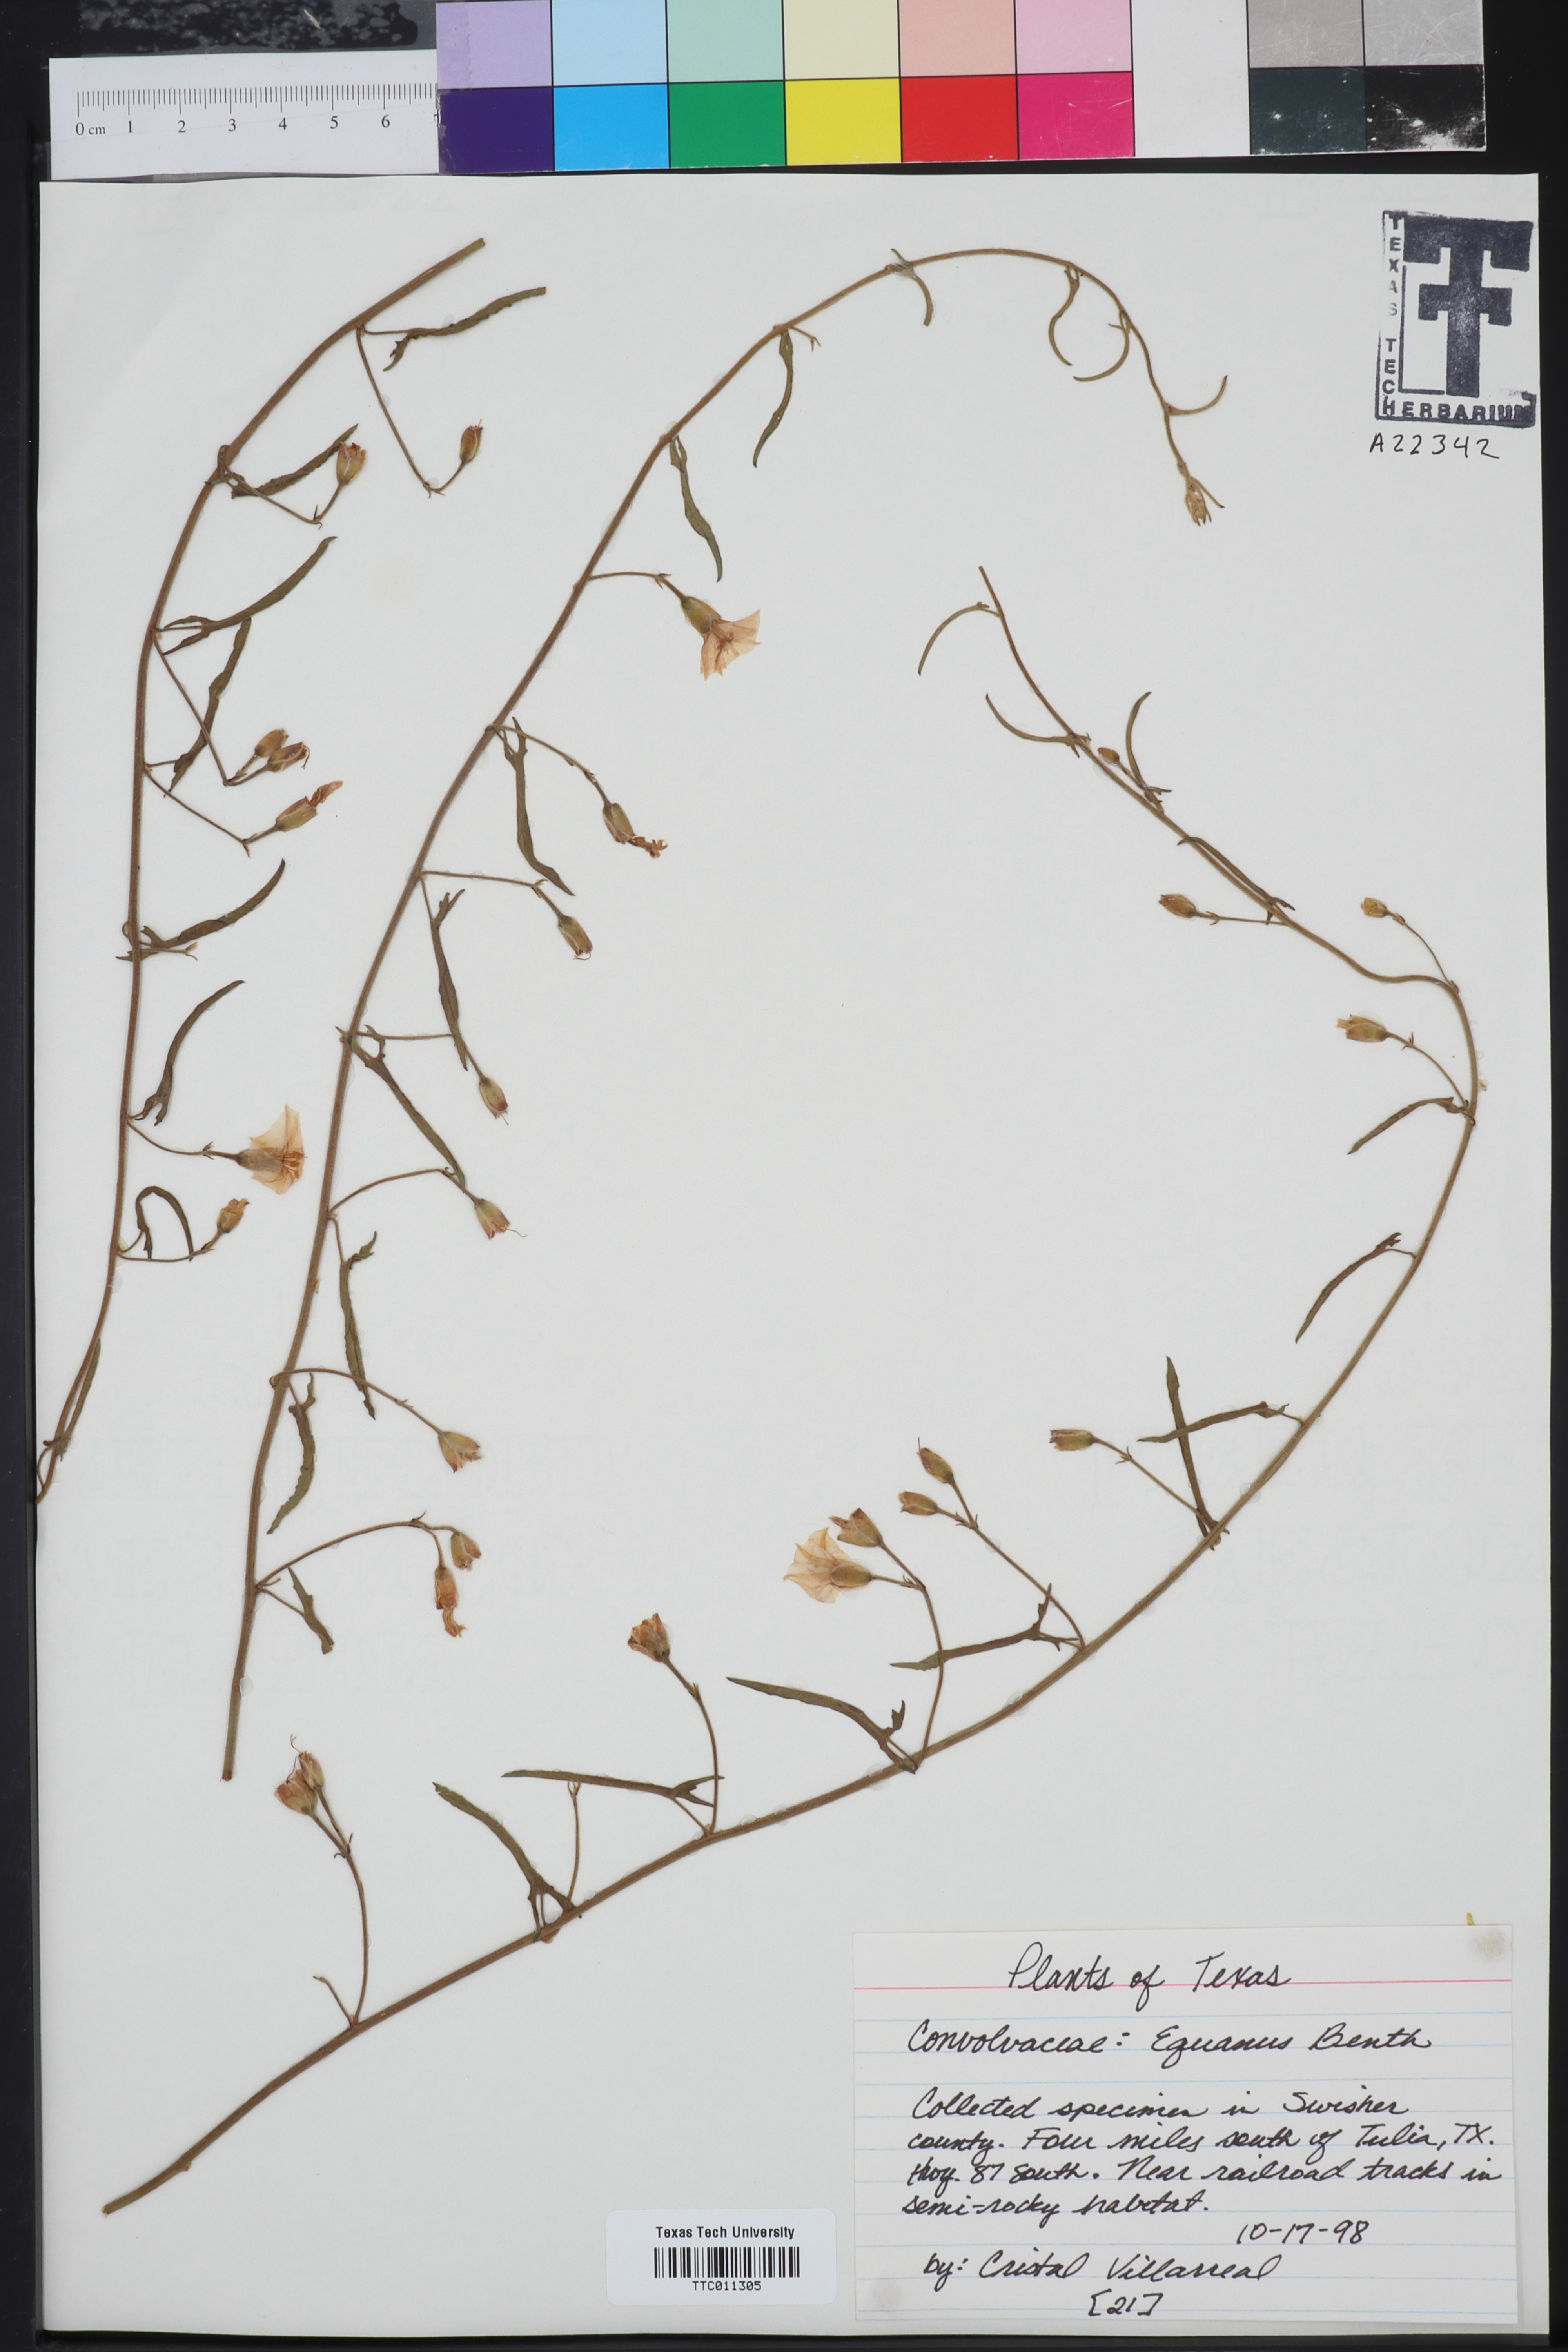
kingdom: Plantae
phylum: Tracheophyta
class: Magnoliopsida
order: Solanales
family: Convolvulaceae
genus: Convolvulus
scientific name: Convolvulus equitans
